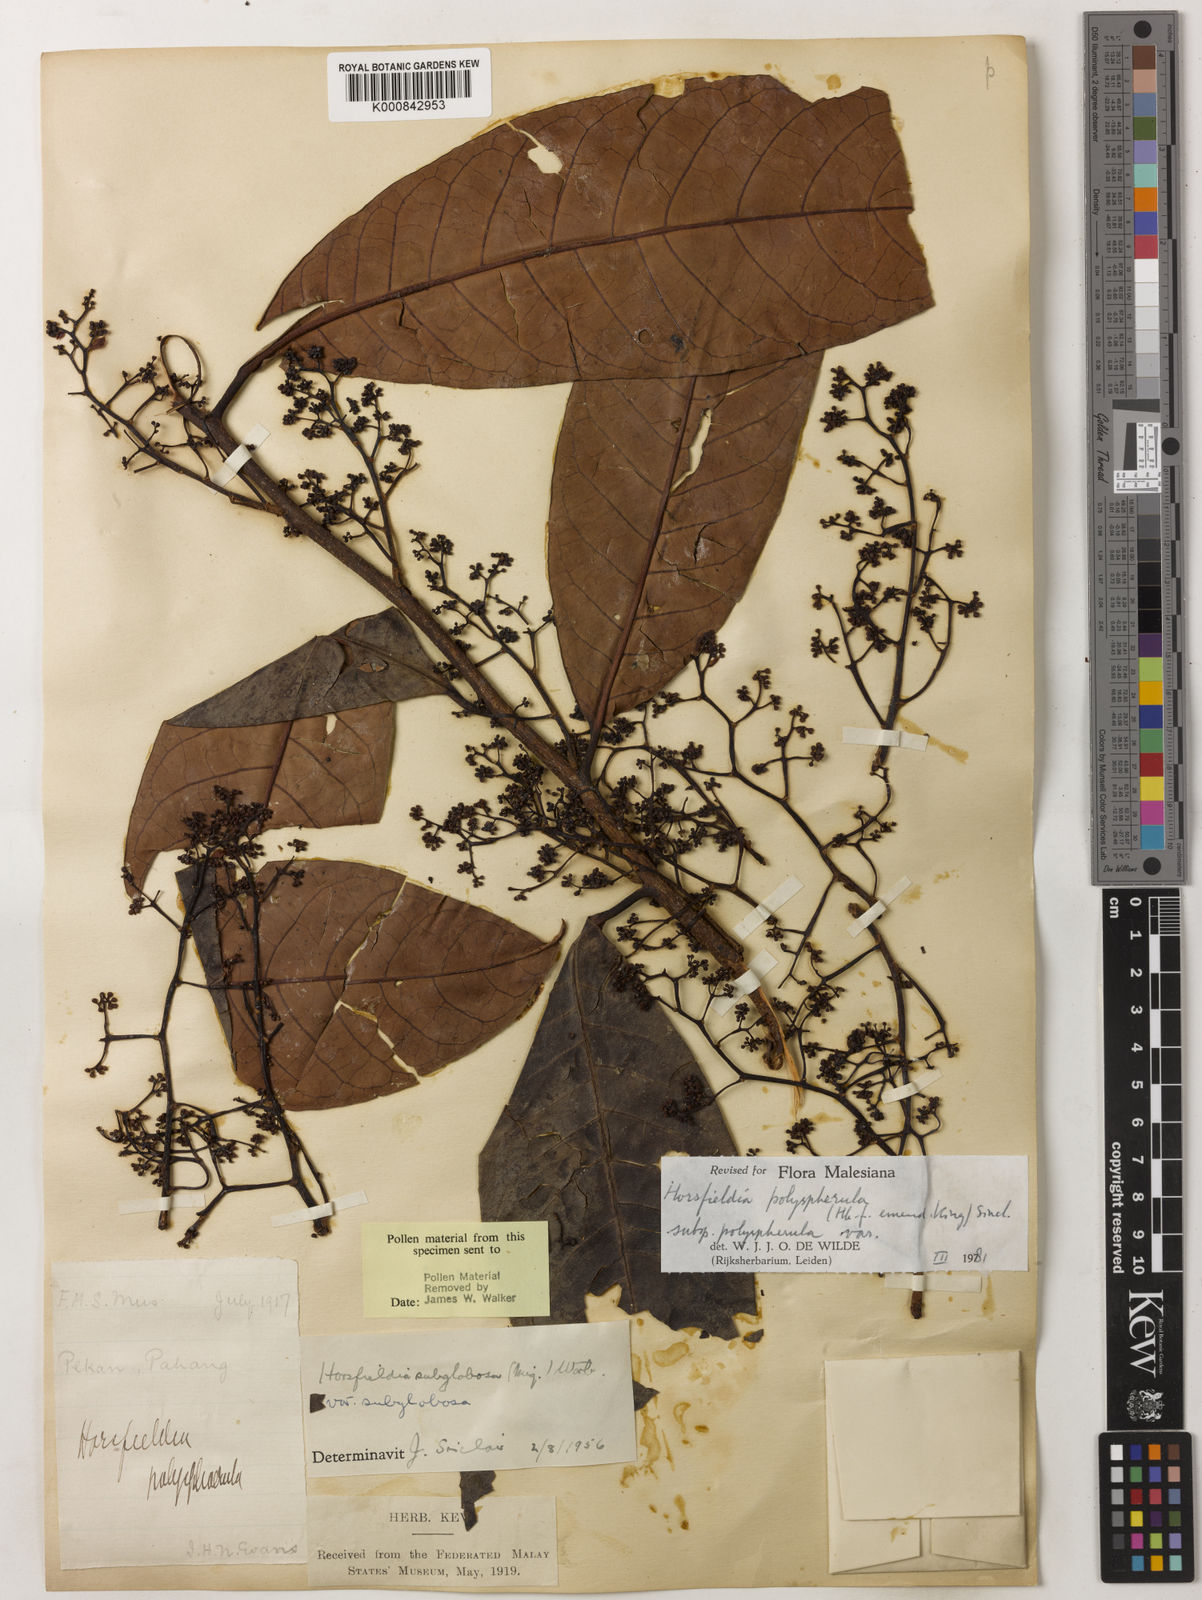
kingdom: Plantae
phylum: Tracheophyta
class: Magnoliopsida
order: Magnoliales
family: Myristicaceae
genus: Horsfieldia
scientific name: Horsfieldia
